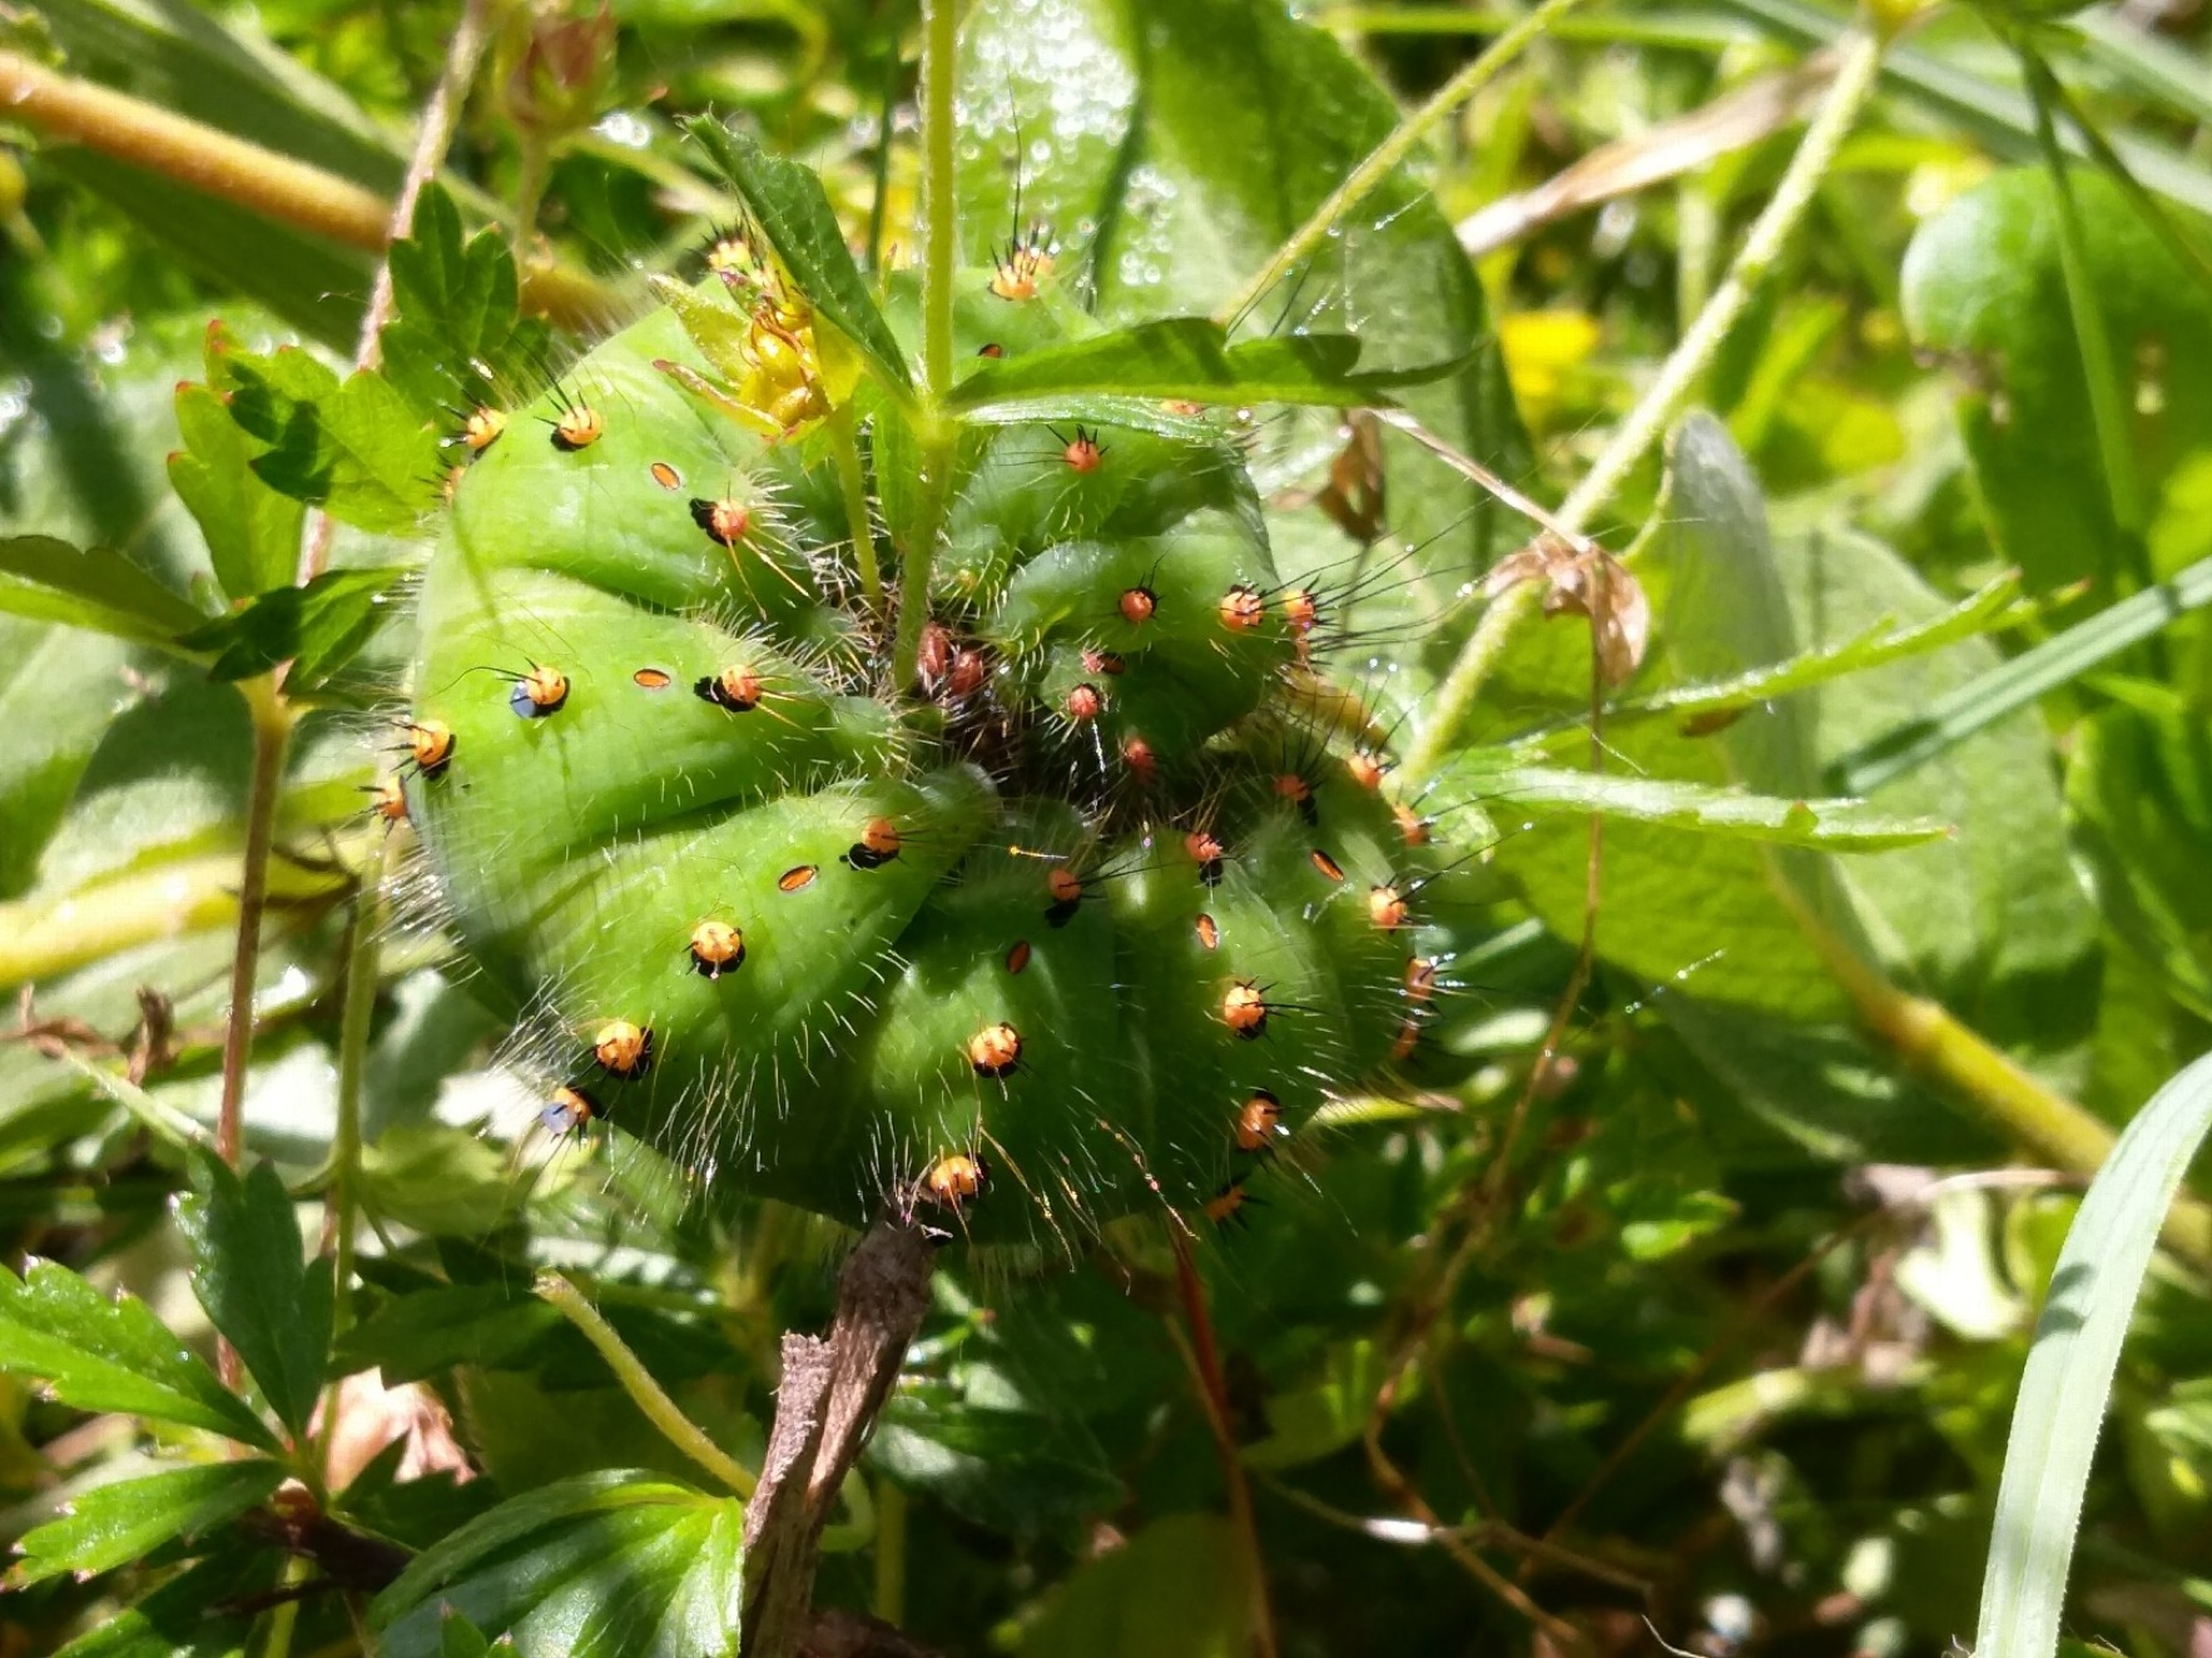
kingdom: Animalia
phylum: Arthropoda
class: Insecta
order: Lepidoptera
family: Saturniidae
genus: Saturnia
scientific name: Saturnia pavonia
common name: Lille natpåfugleøje
